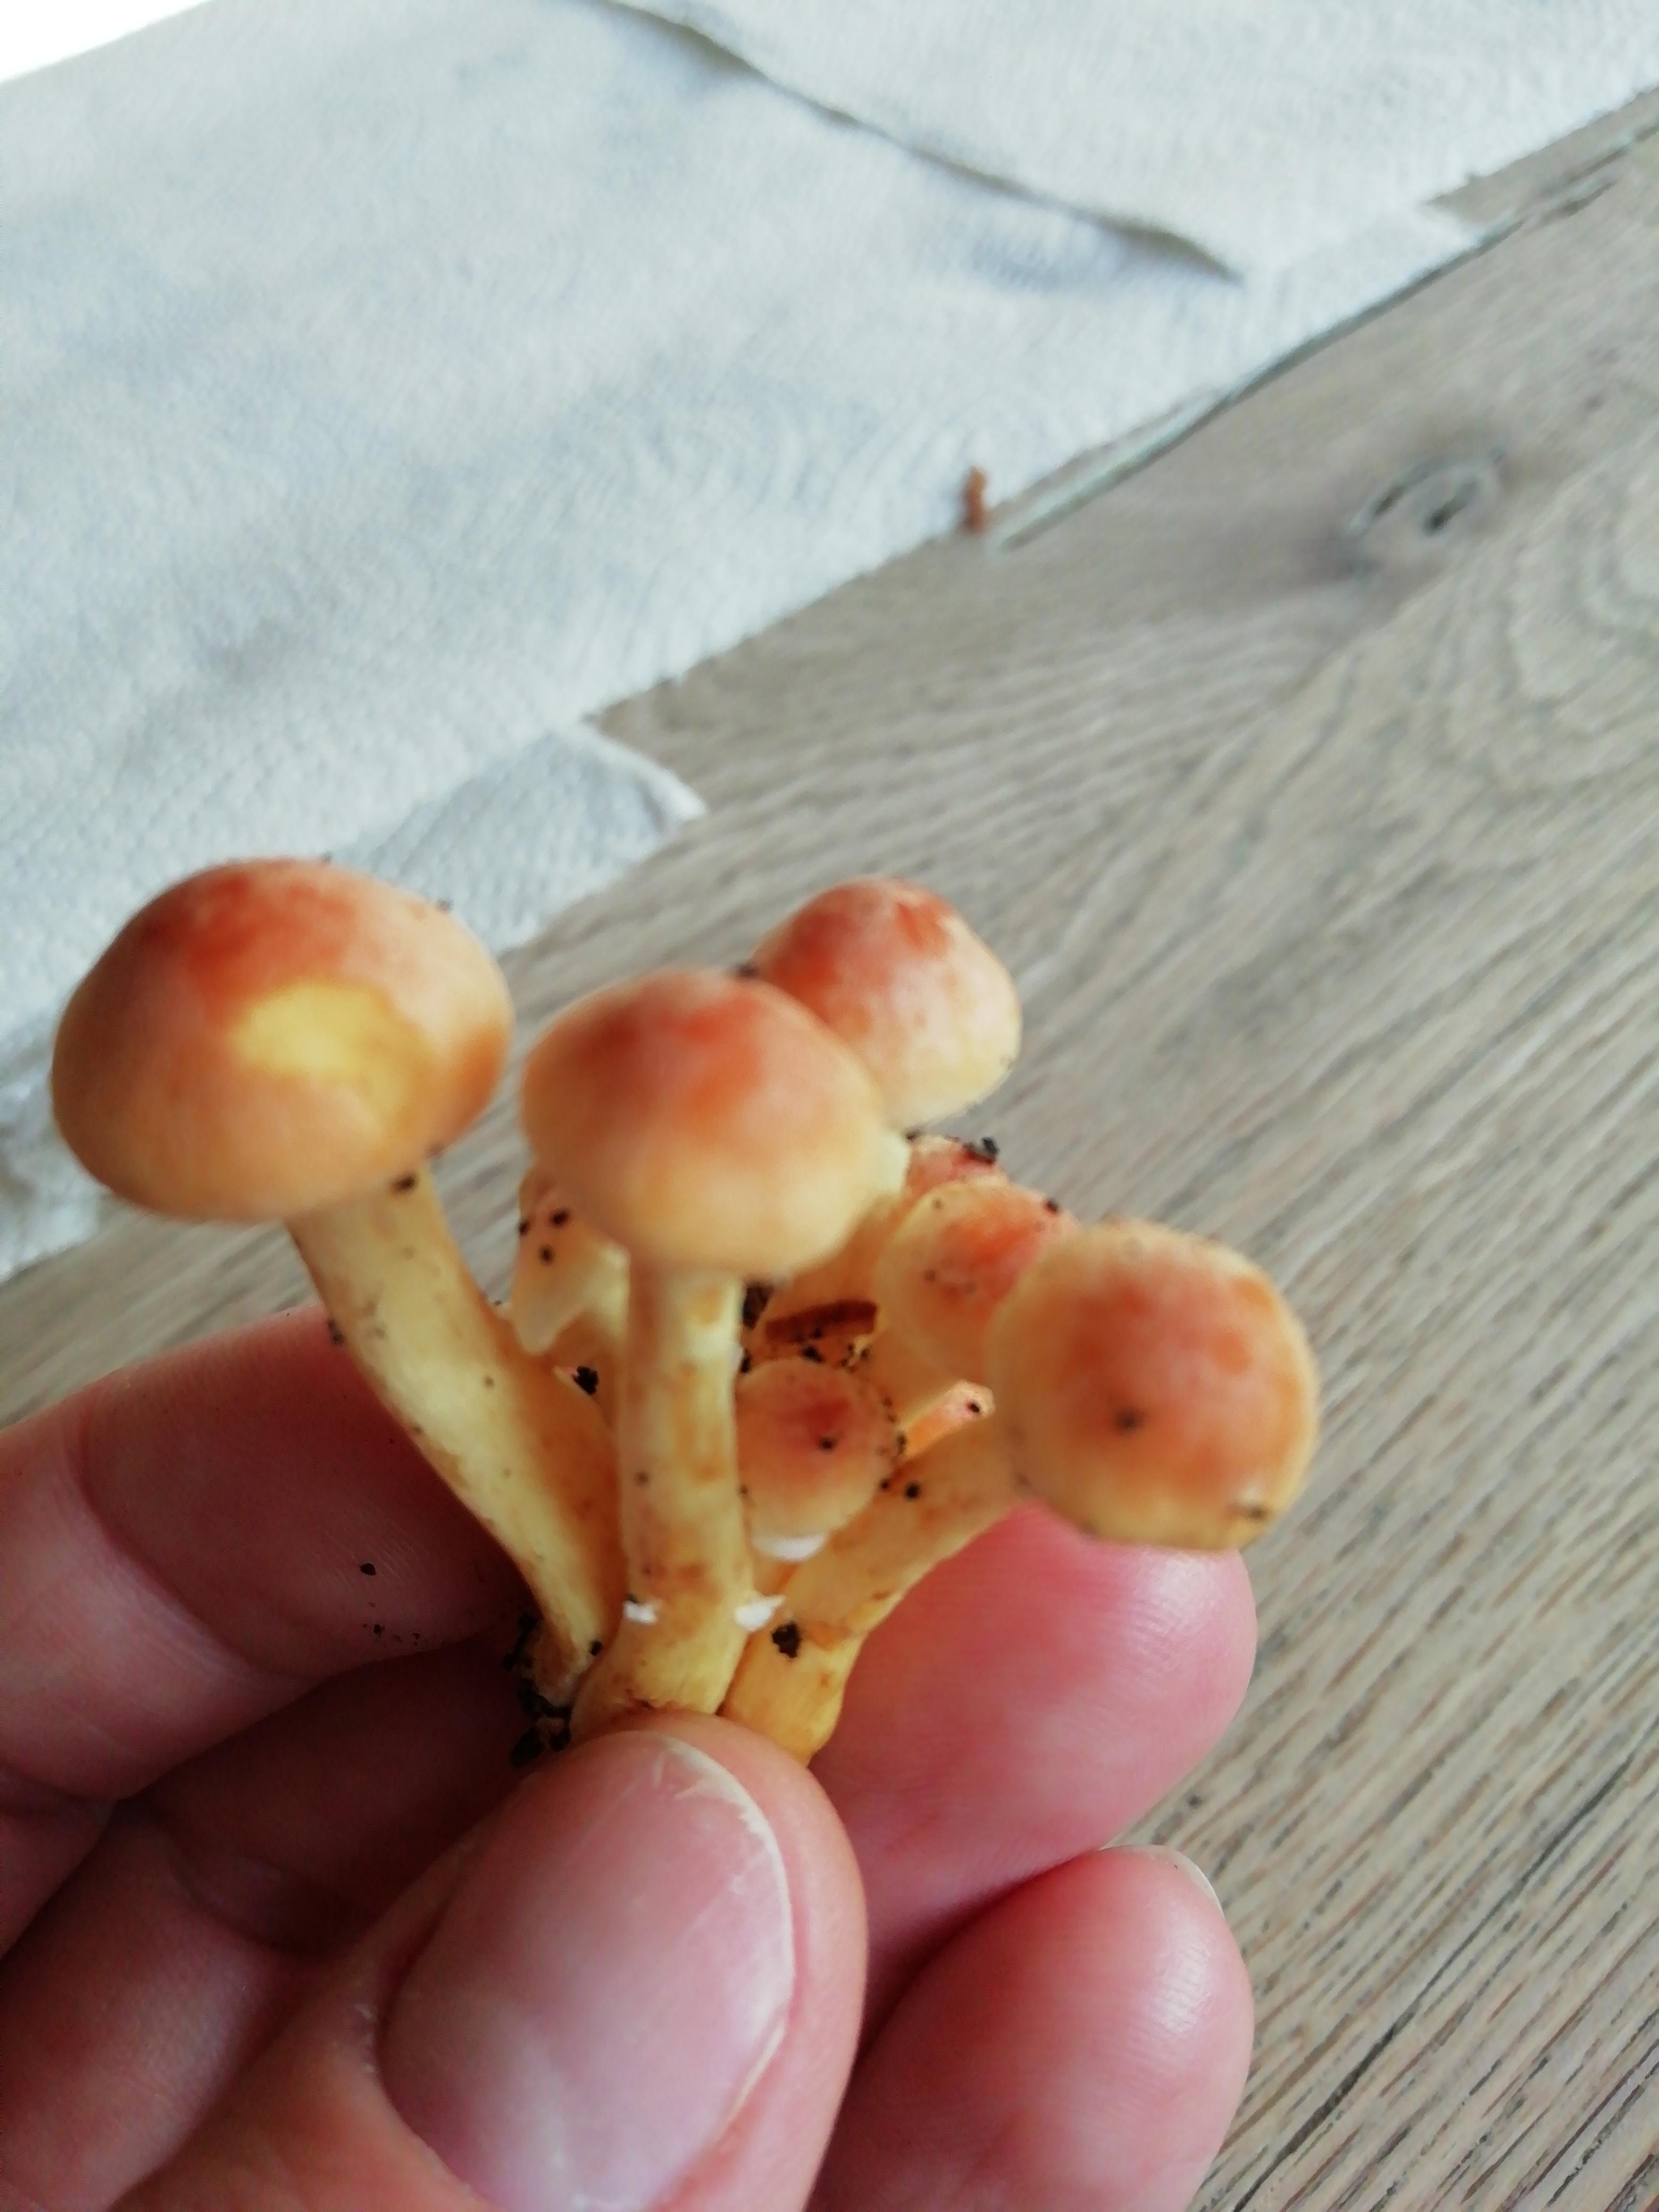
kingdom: Fungi
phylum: Basidiomycota
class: Agaricomycetes
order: Agaricales
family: Strophariaceae
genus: Hypholoma
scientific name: Hypholoma
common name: svovlhat
